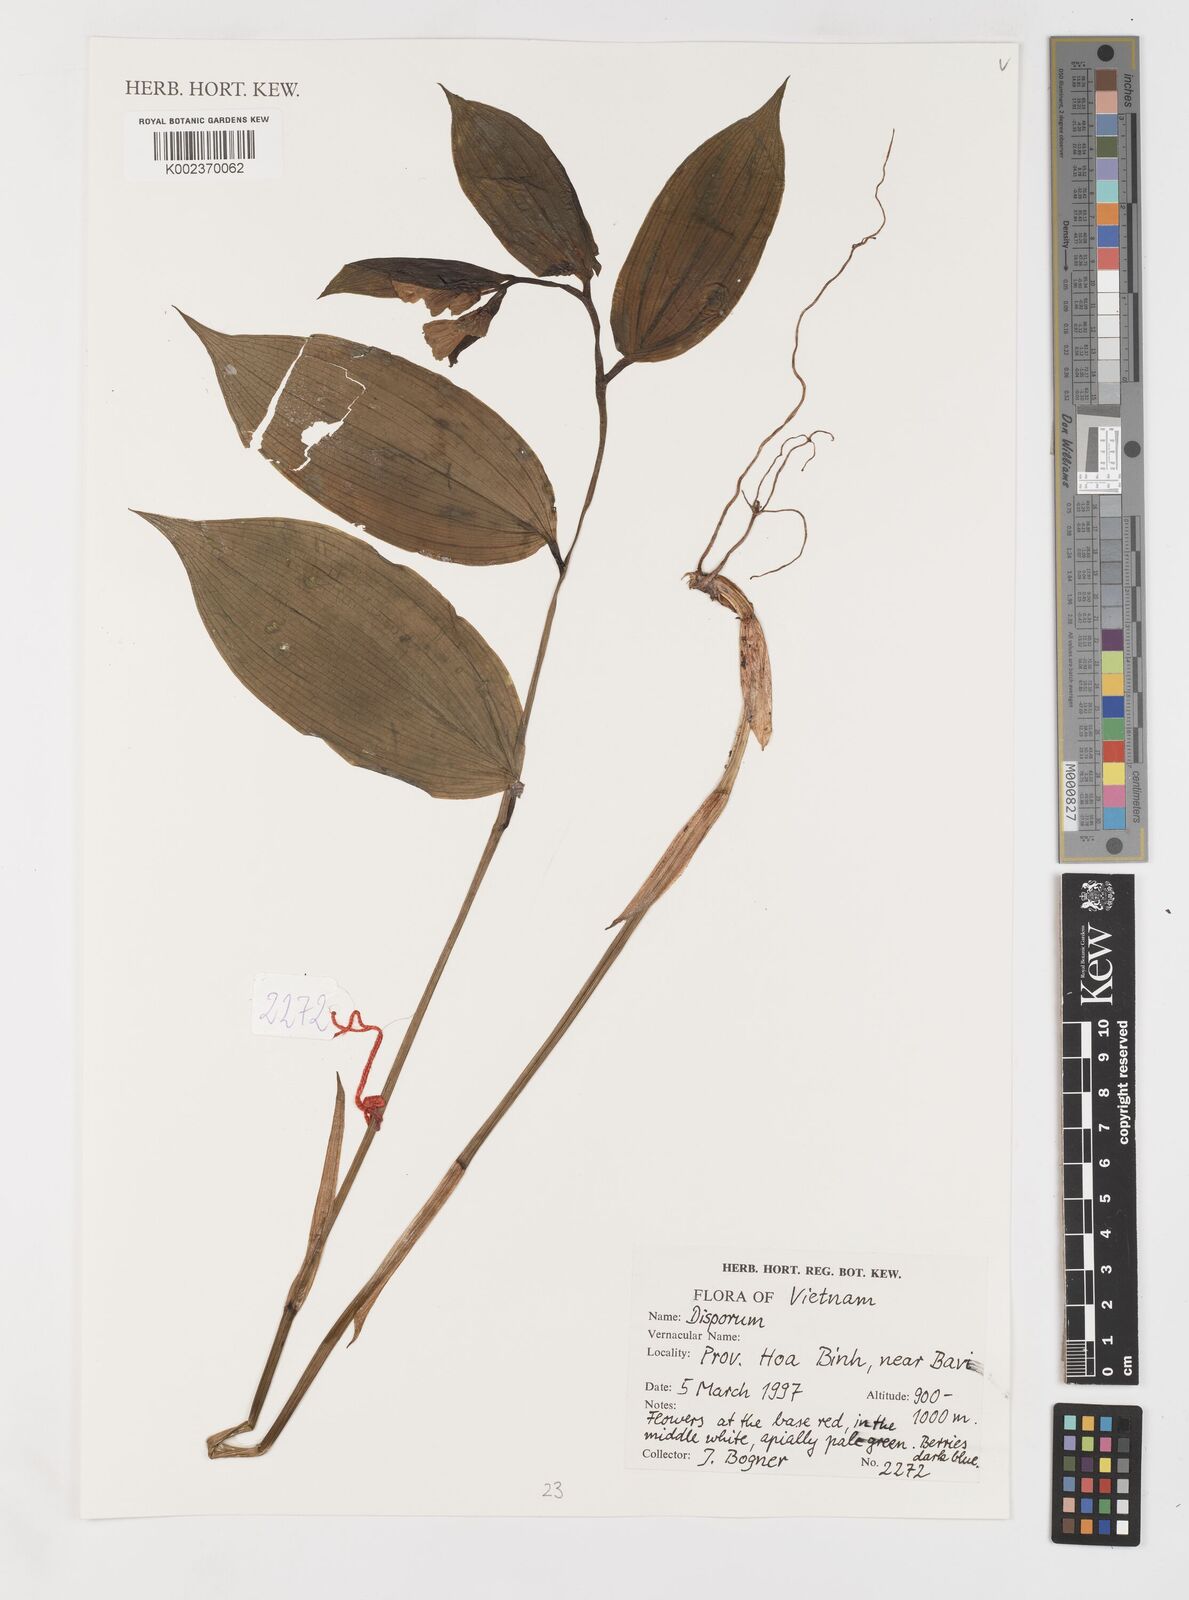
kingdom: Plantae
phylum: Tracheophyta
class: Liliopsida
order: Liliales
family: Colchicaceae
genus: Disporum
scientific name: Disporum
